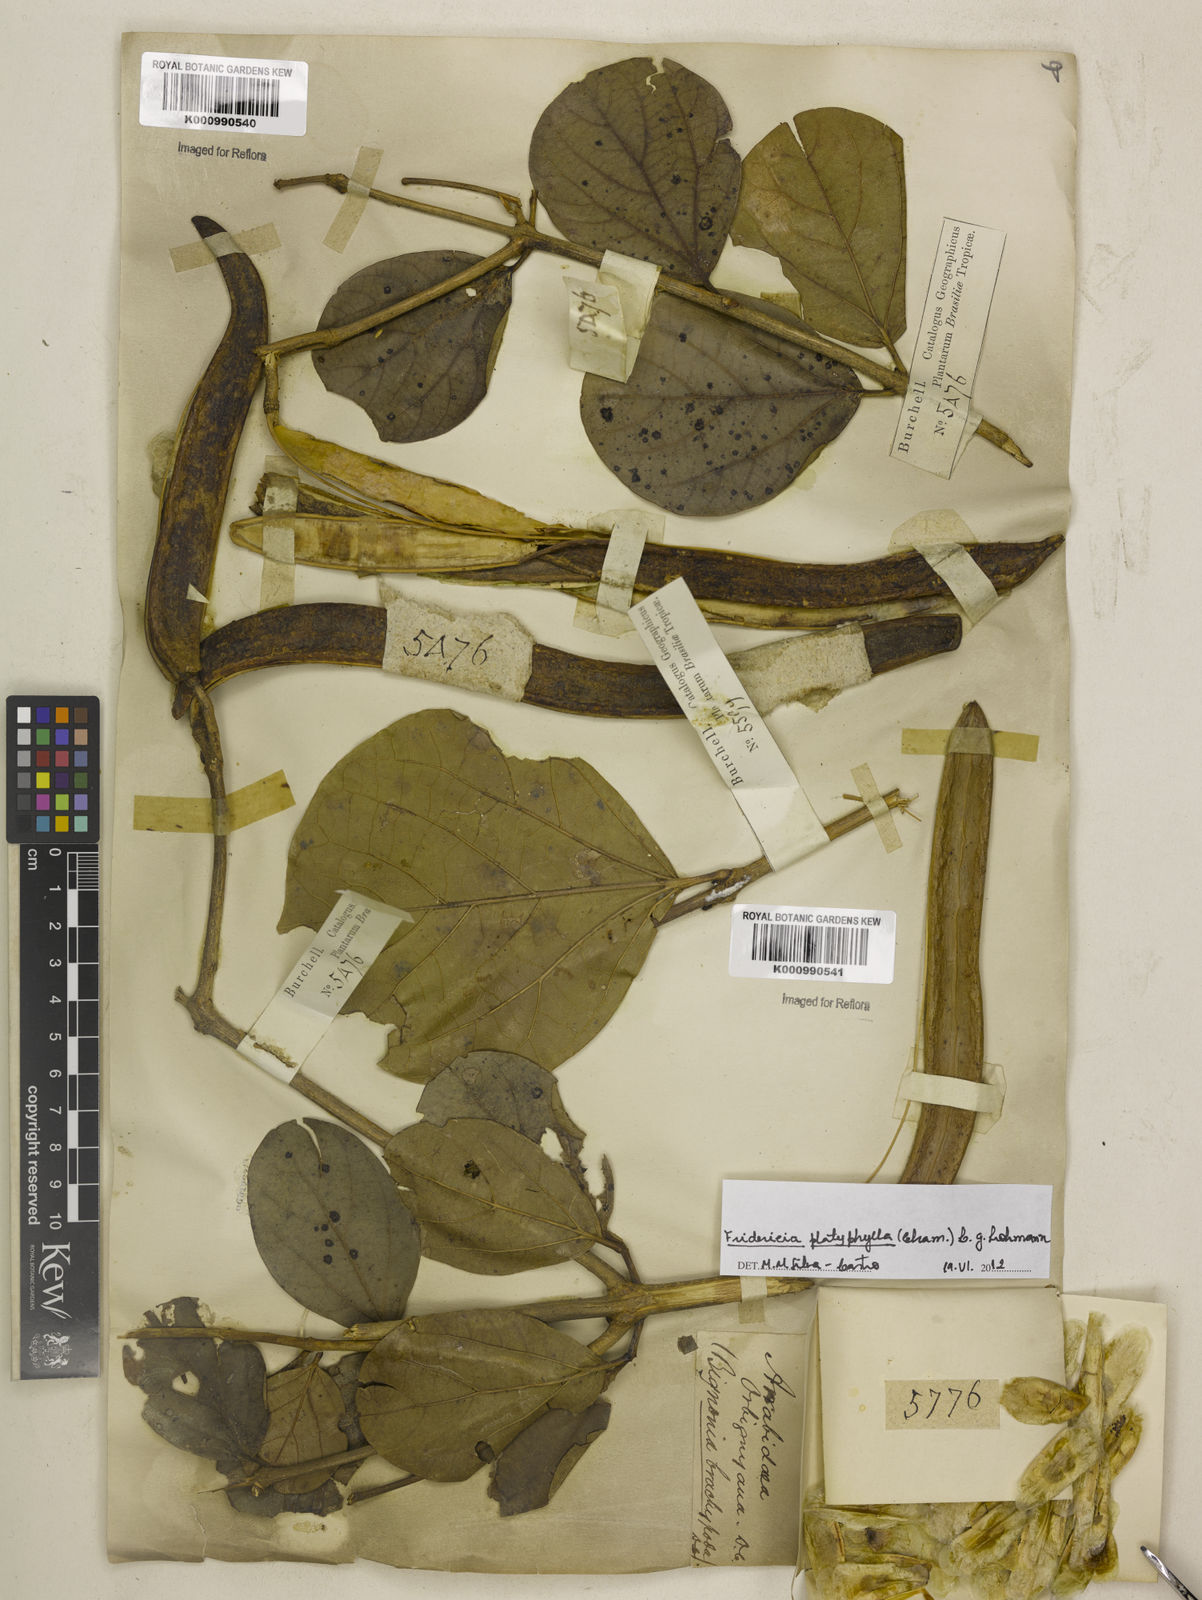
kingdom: Plantae
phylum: Tracheophyta
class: Magnoliopsida
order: Lamiales
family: Bignoniaceae
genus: Fridericia
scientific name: Fridericia platyphylla
